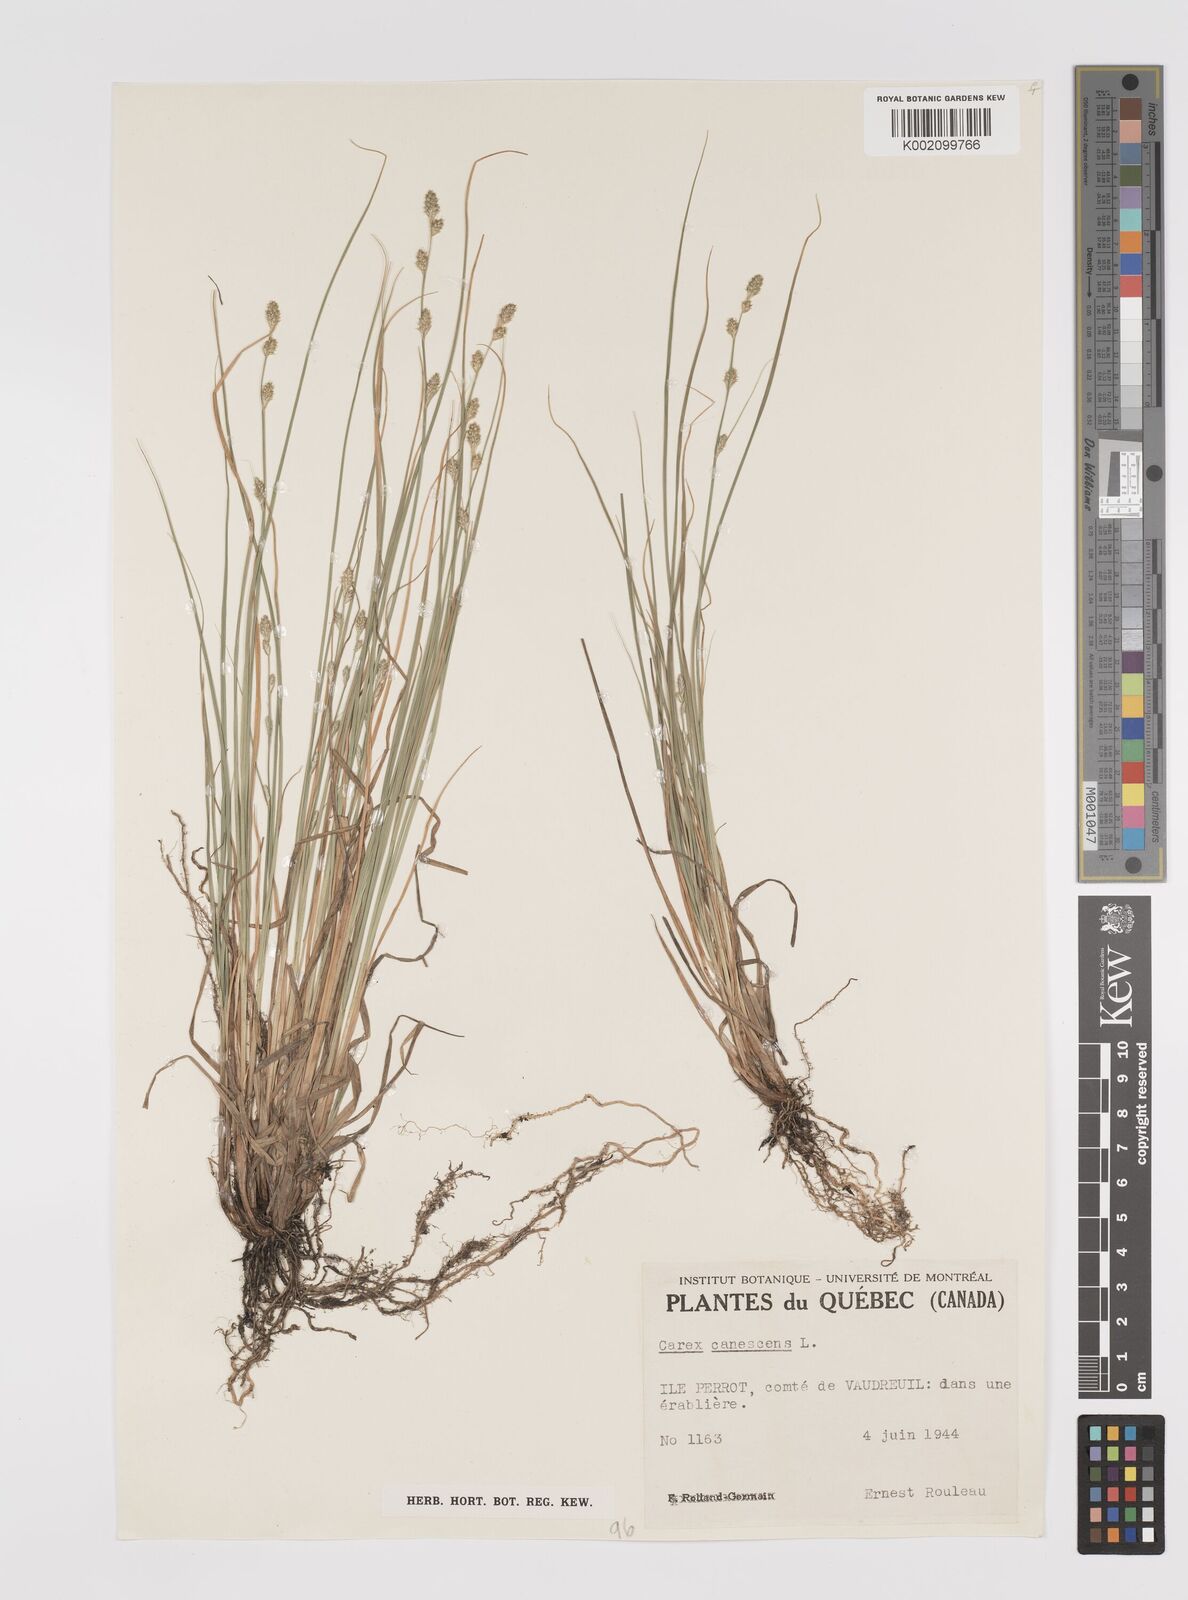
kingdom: Plantae
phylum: Tracheophyta
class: Liliopsida
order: Poales
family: Cyperaceae
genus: Carex
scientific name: Carex curta
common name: White sedge
